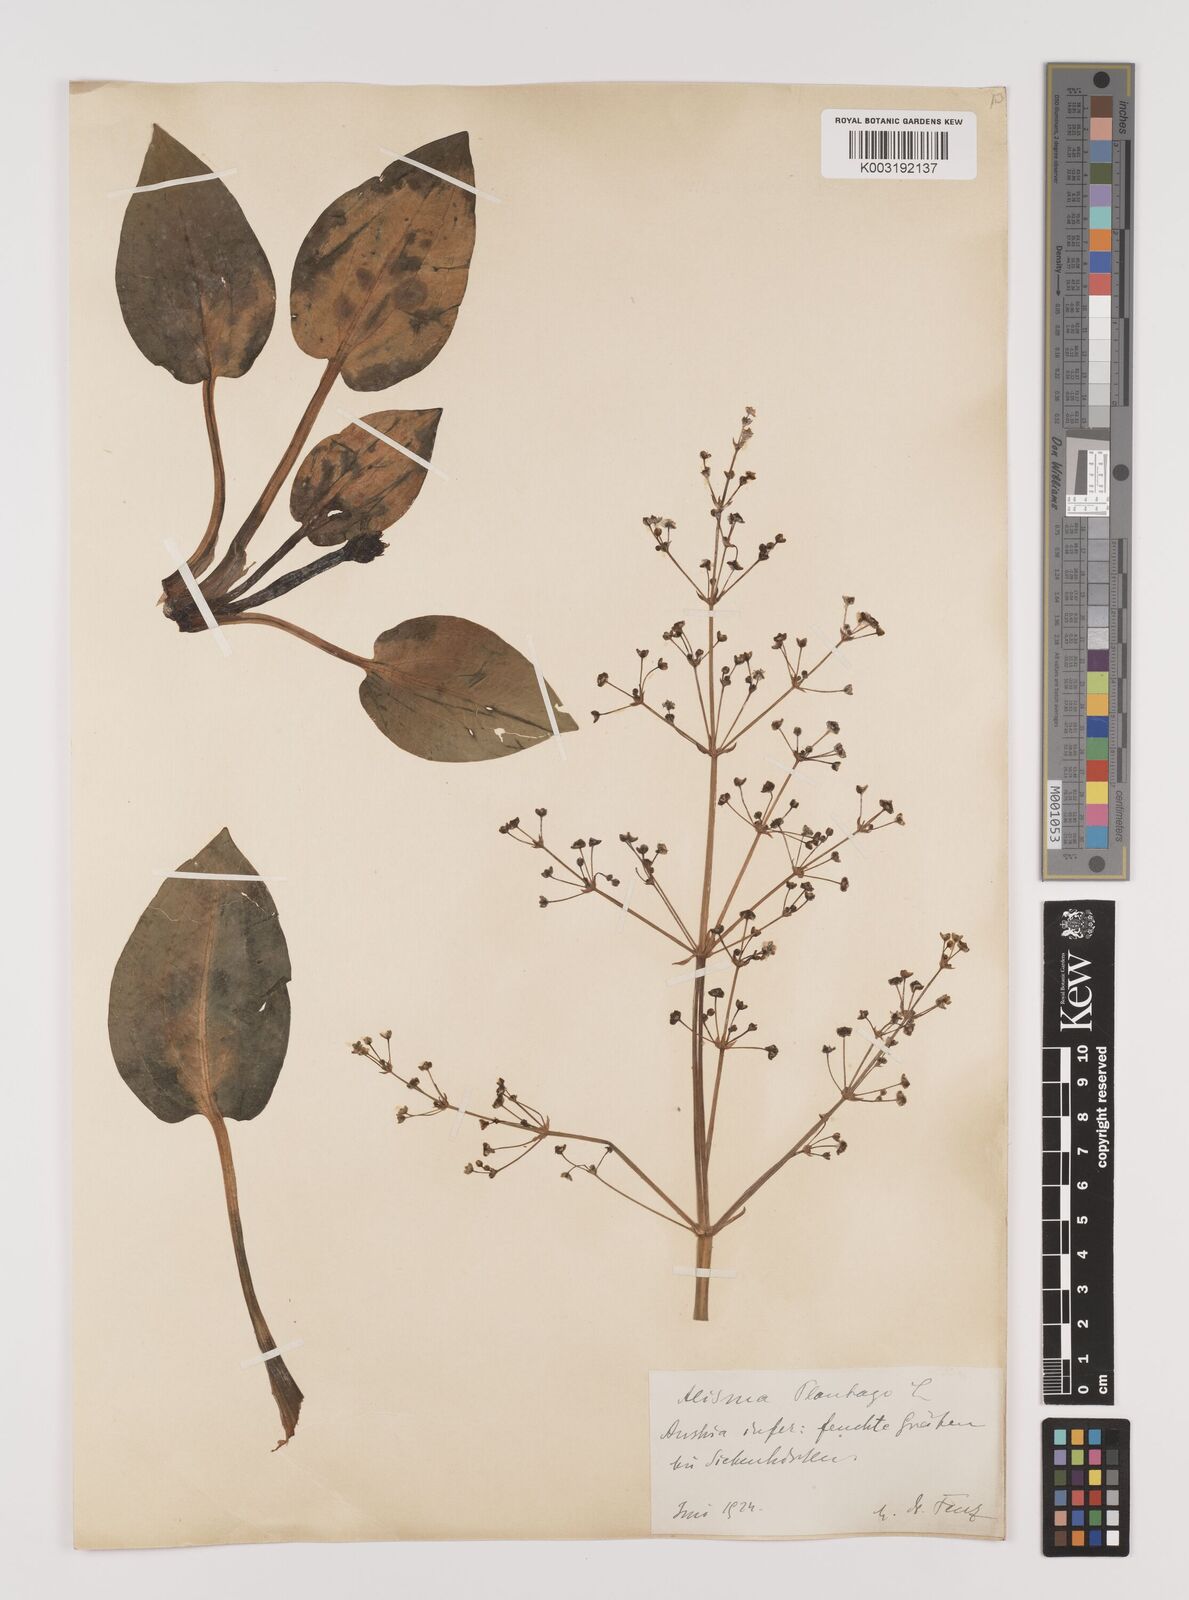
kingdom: Plantae
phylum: Tracheophyta
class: Liliopsida
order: Alismatales
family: Alismataceae
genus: Alisma
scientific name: Alisma plantago-aquatica
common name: Water-plantain
